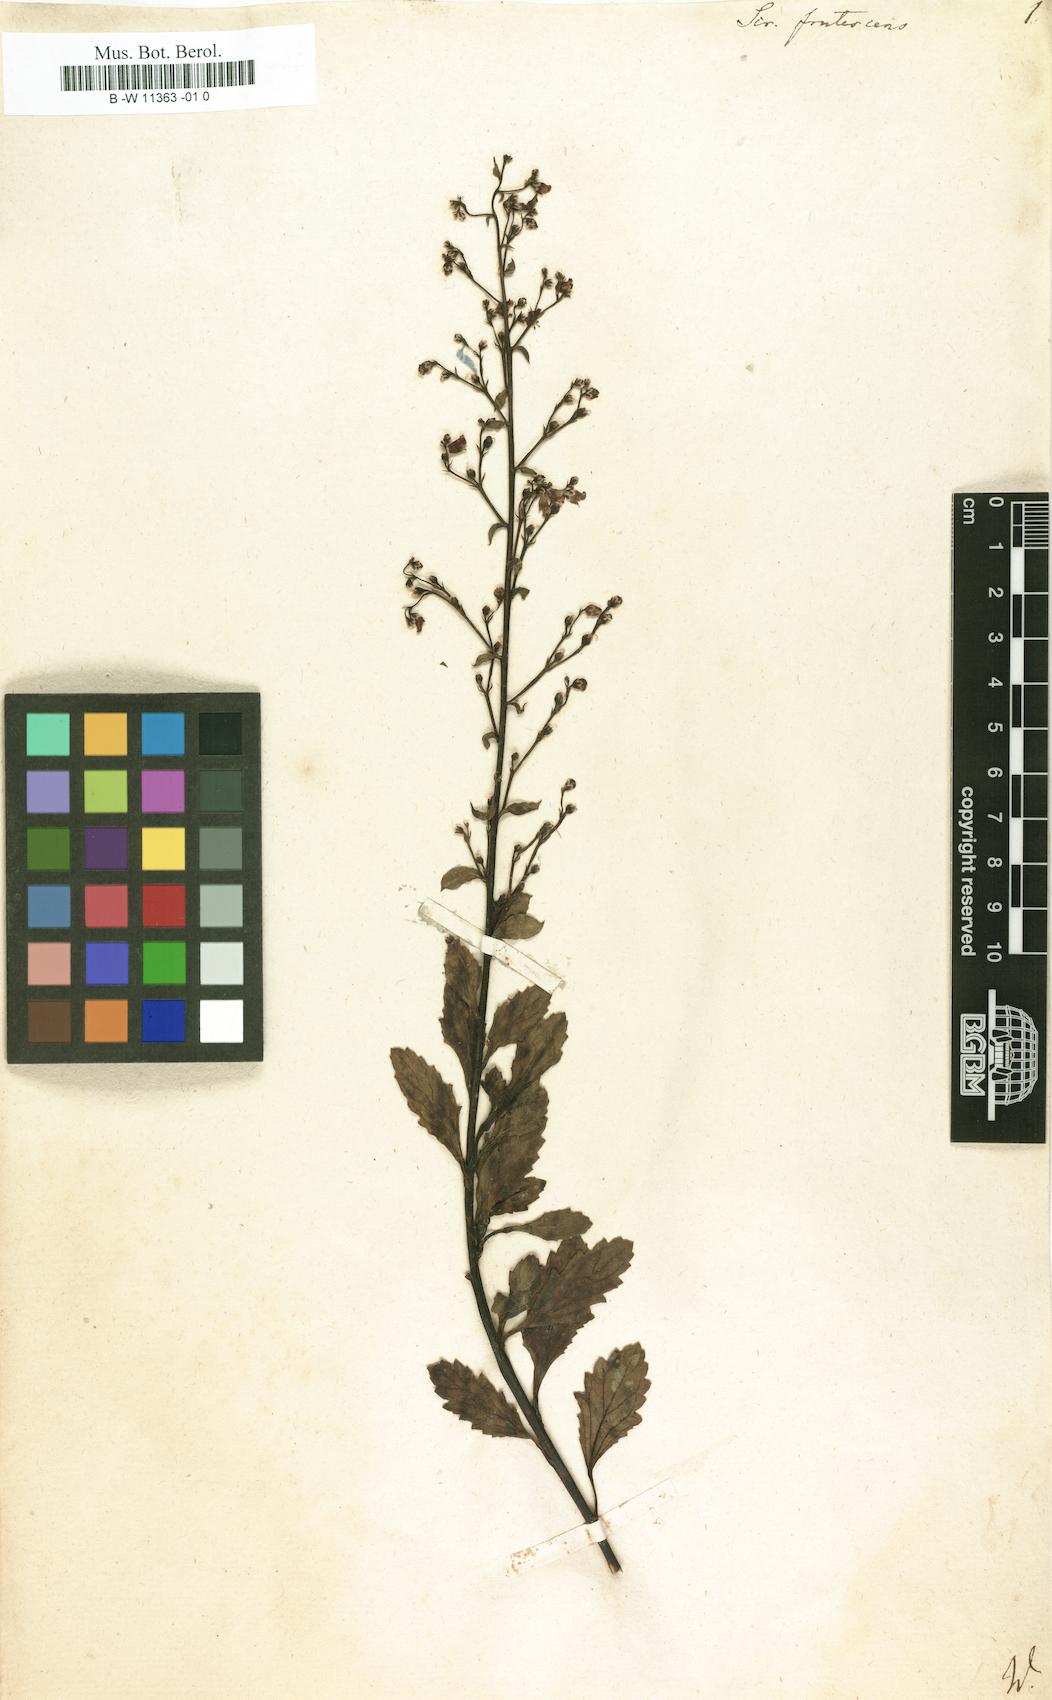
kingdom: Plantae
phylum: Tracheophyta
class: Magnoliopsida
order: Lamiales
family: Scrophulariaceae
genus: Scrophularia
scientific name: Scrophularia frutescens
